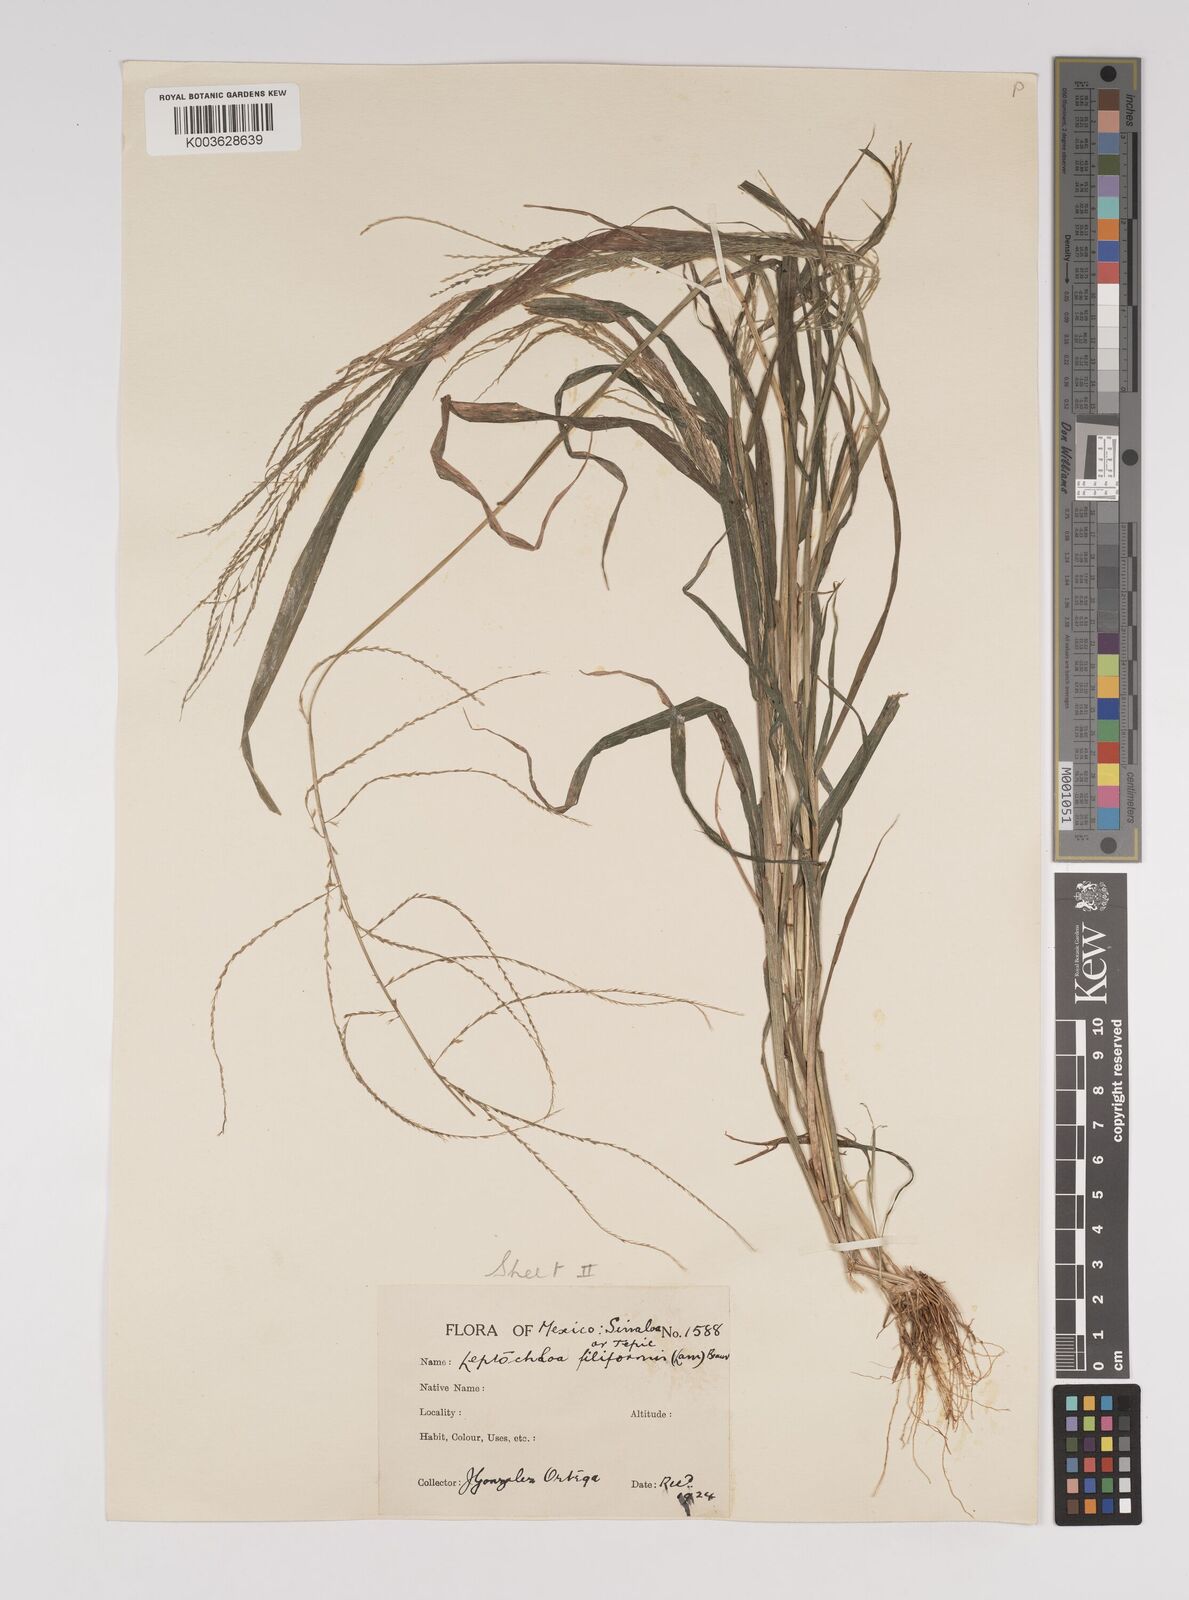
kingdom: Plantae
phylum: Tracheophyta
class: Liliopsida
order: Poales
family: Poaceae
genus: Leptochloa
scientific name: Leptochloa panicea
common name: Mucronate sprangletop
